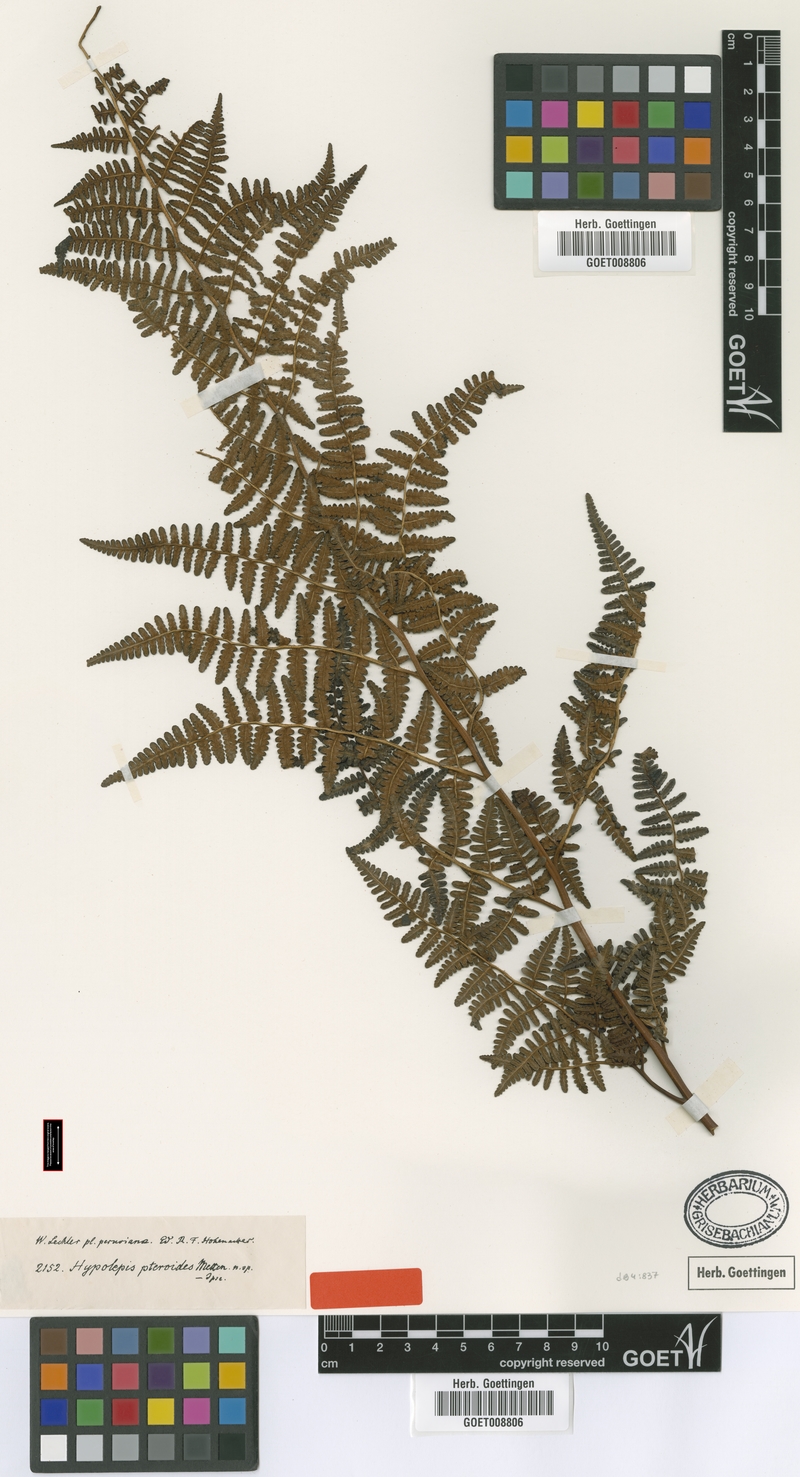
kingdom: Plantae
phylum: Tracheophyta
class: Polypodiopsida
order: Polypodiales
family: Dennstaedtiaceae
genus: Hypolepis
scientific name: Hypolepis pteroides
